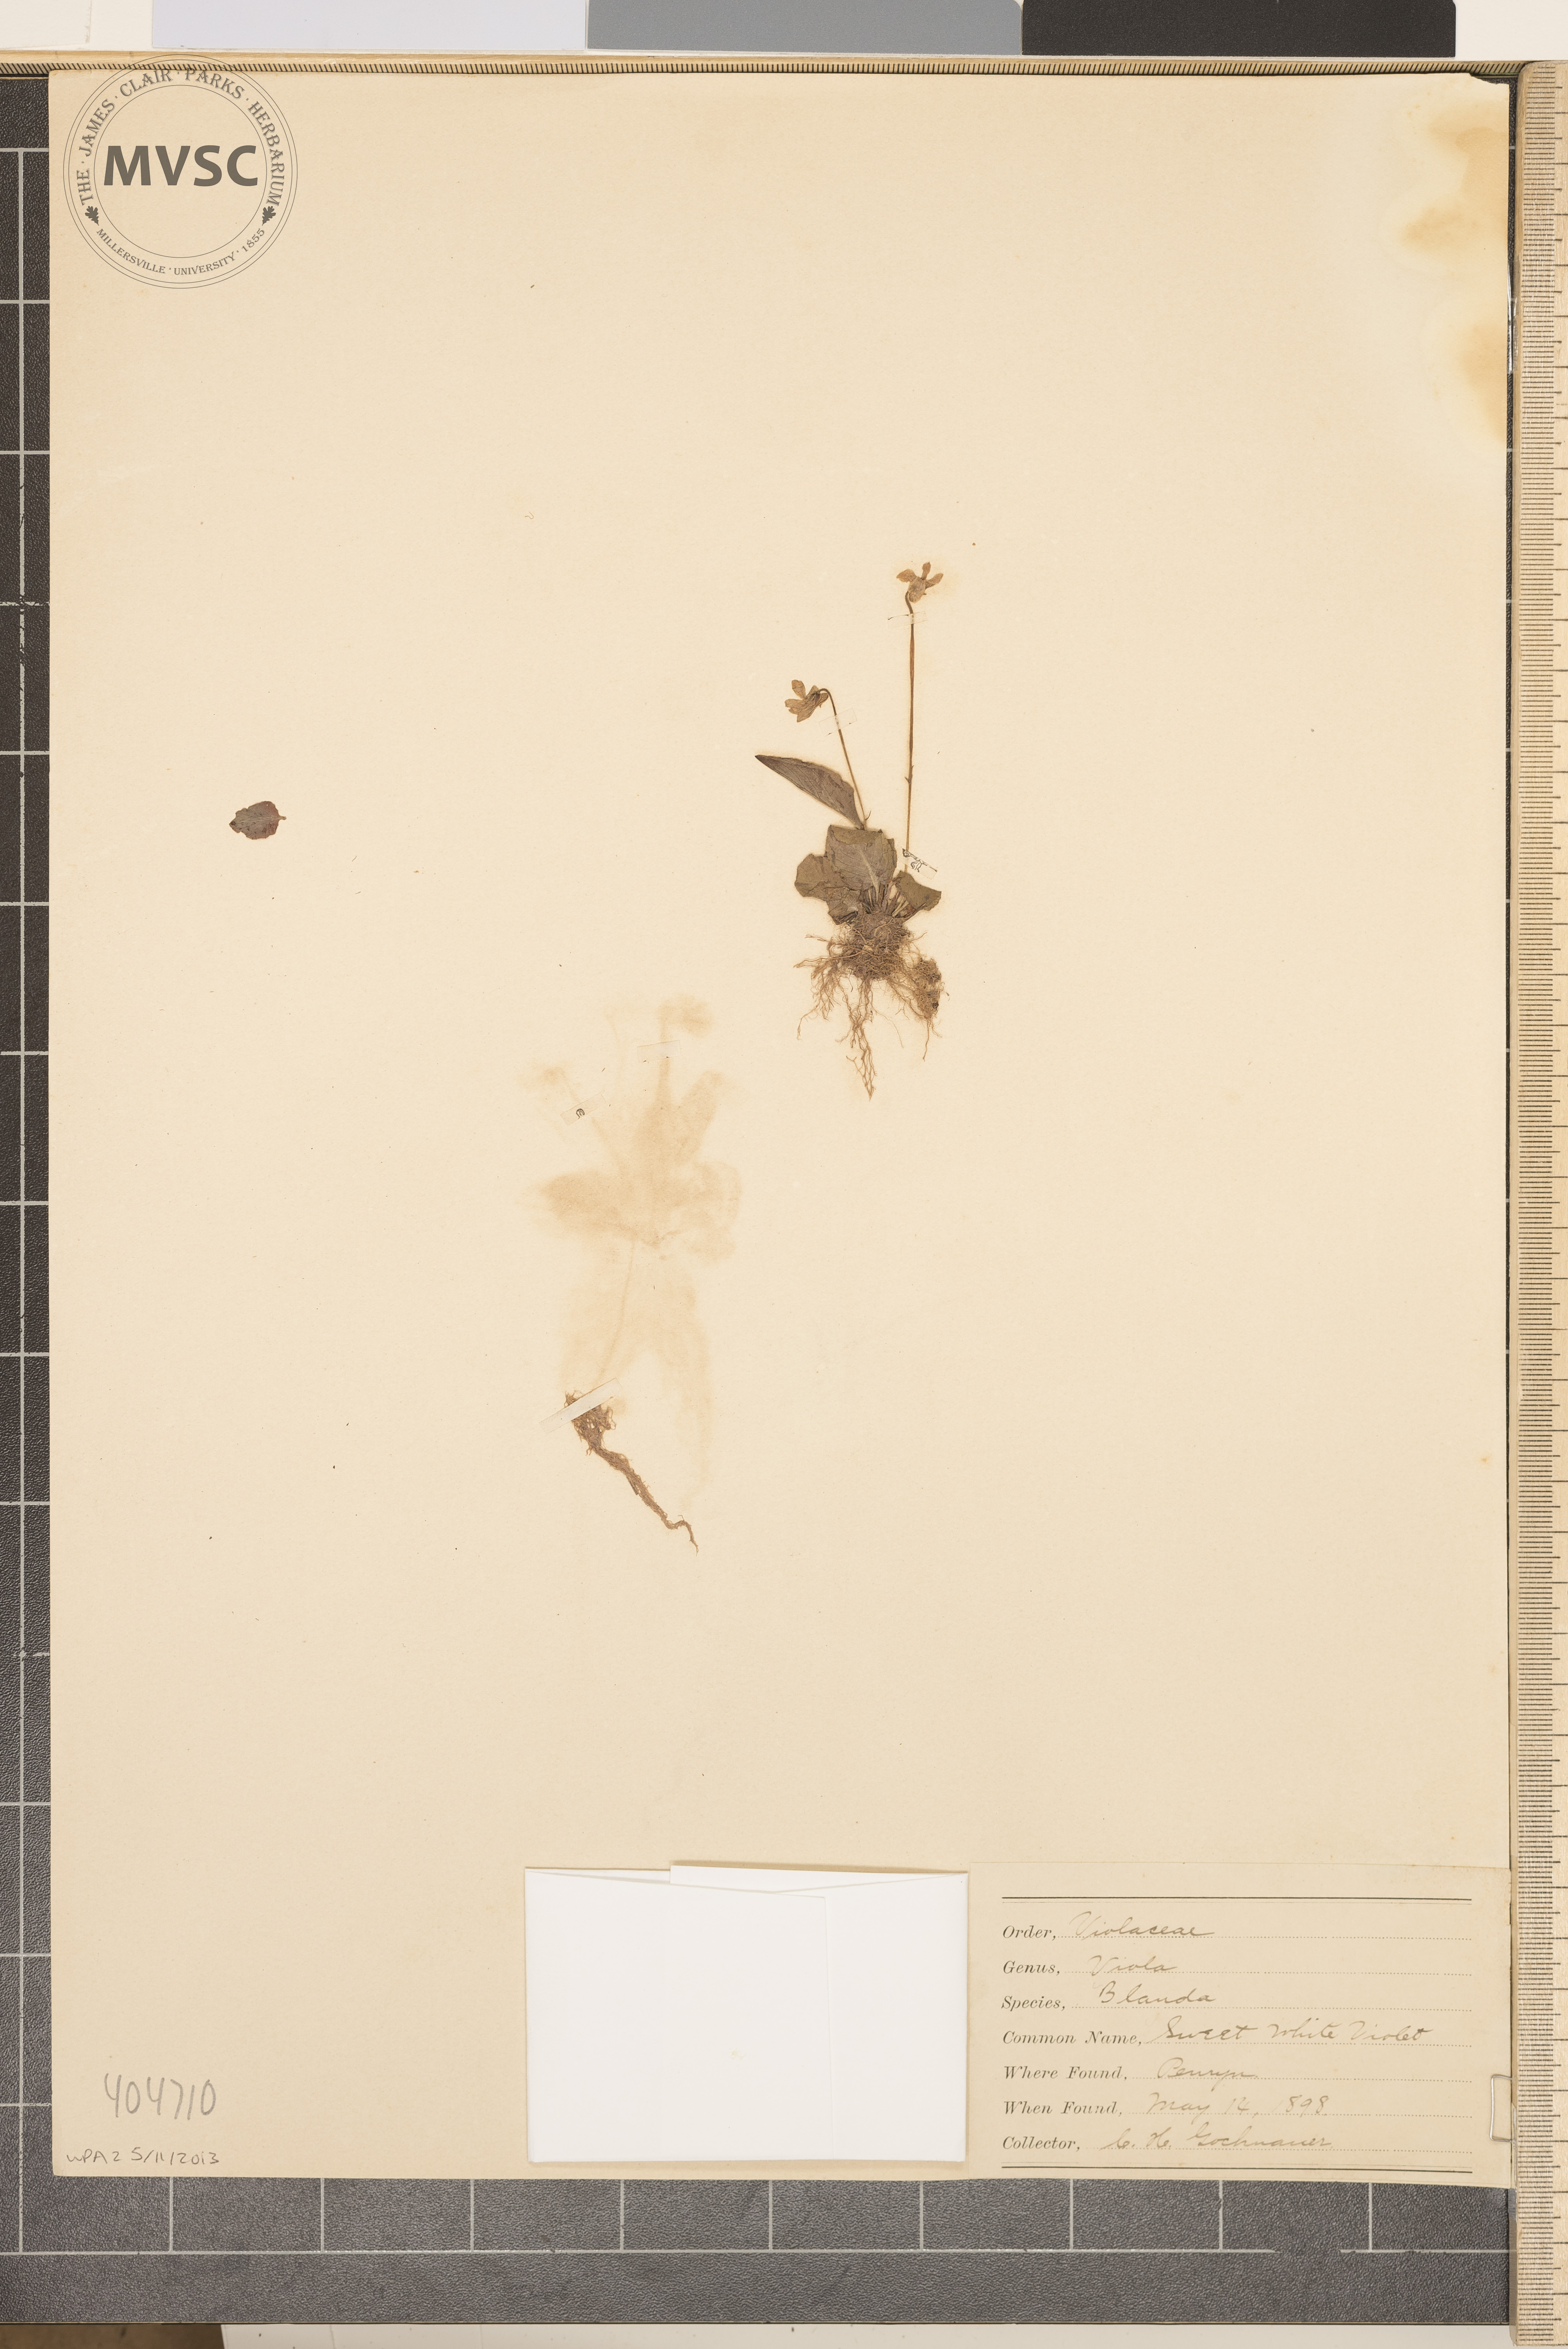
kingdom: Plantae
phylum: Tracheophyta
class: Magnoliopsida
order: Malpighiales
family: Violaceae
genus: Viola
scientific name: Viola blanda
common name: Sweet White Violet
